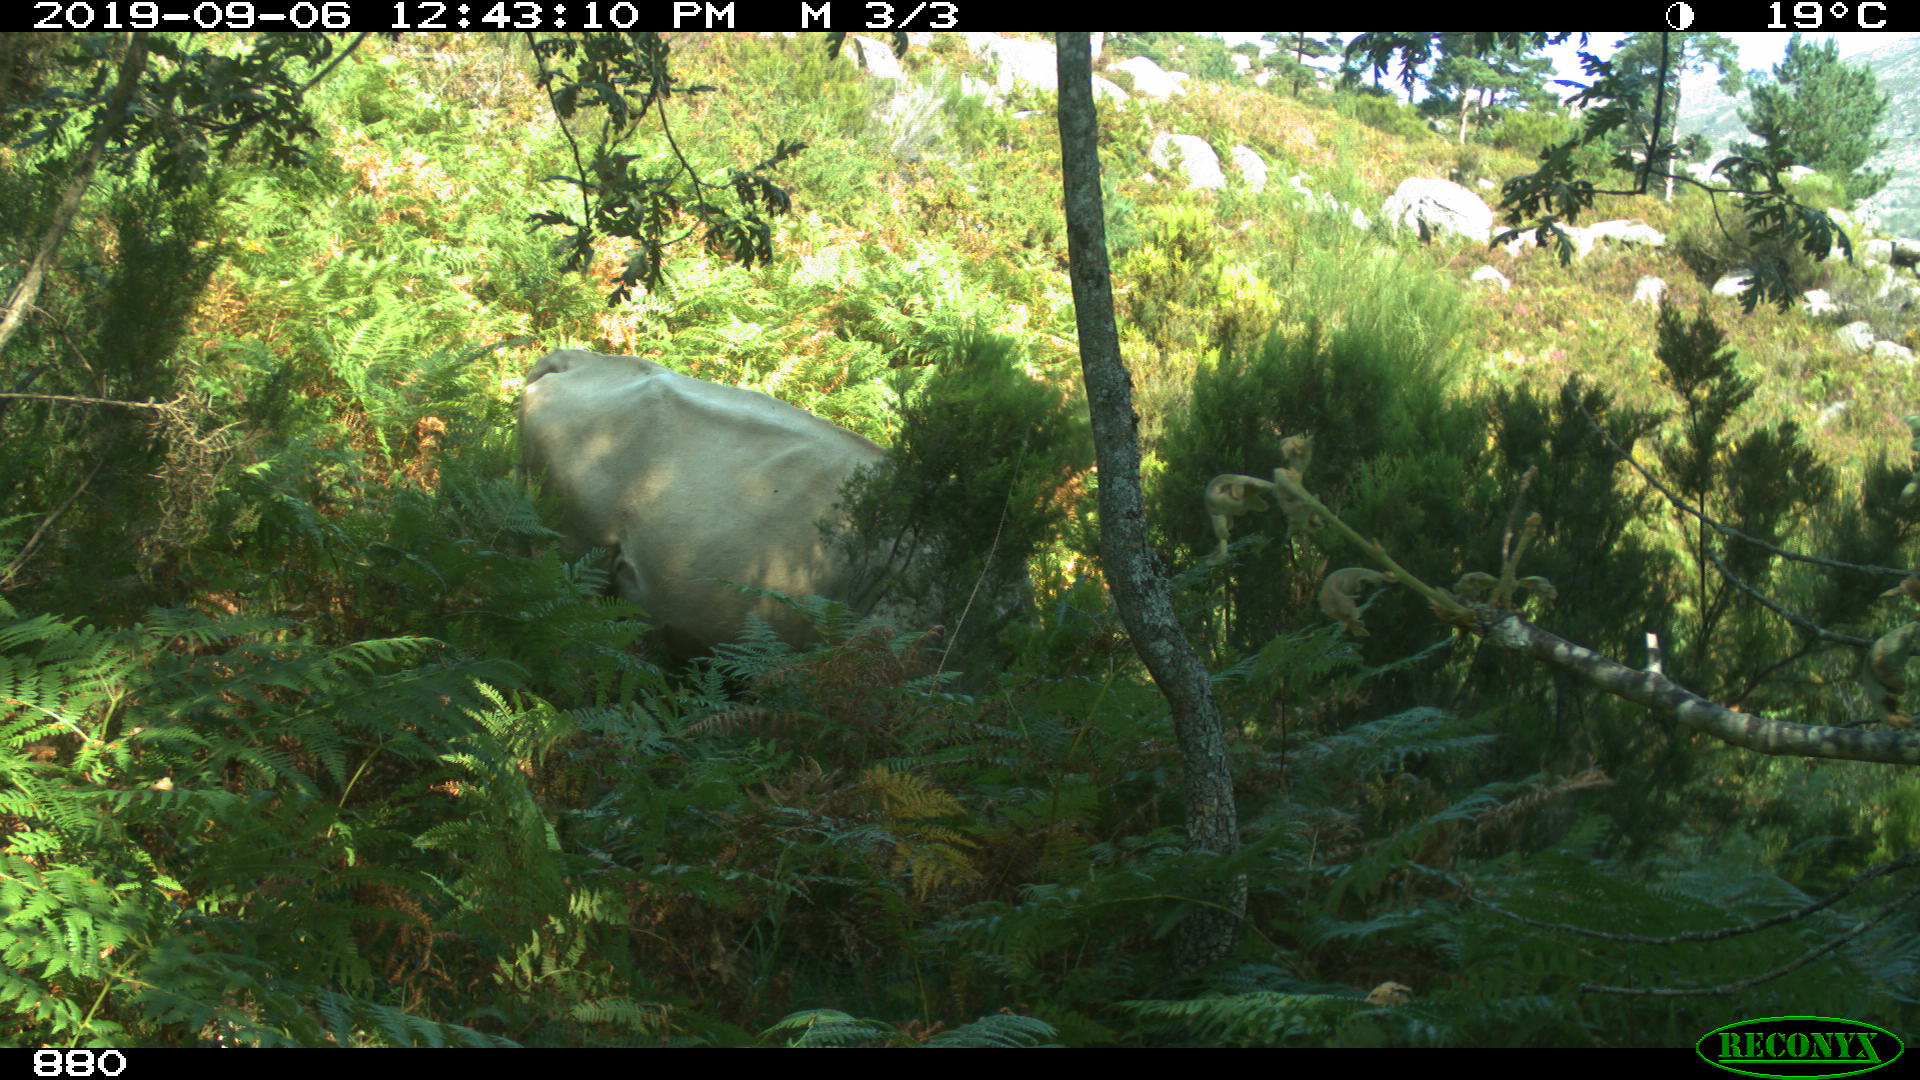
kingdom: Animalia
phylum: Chordata
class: Mammalia
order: Artiodactyla
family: Bovidae
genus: Bos
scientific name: Bos taurus
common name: Domesticated cattle
